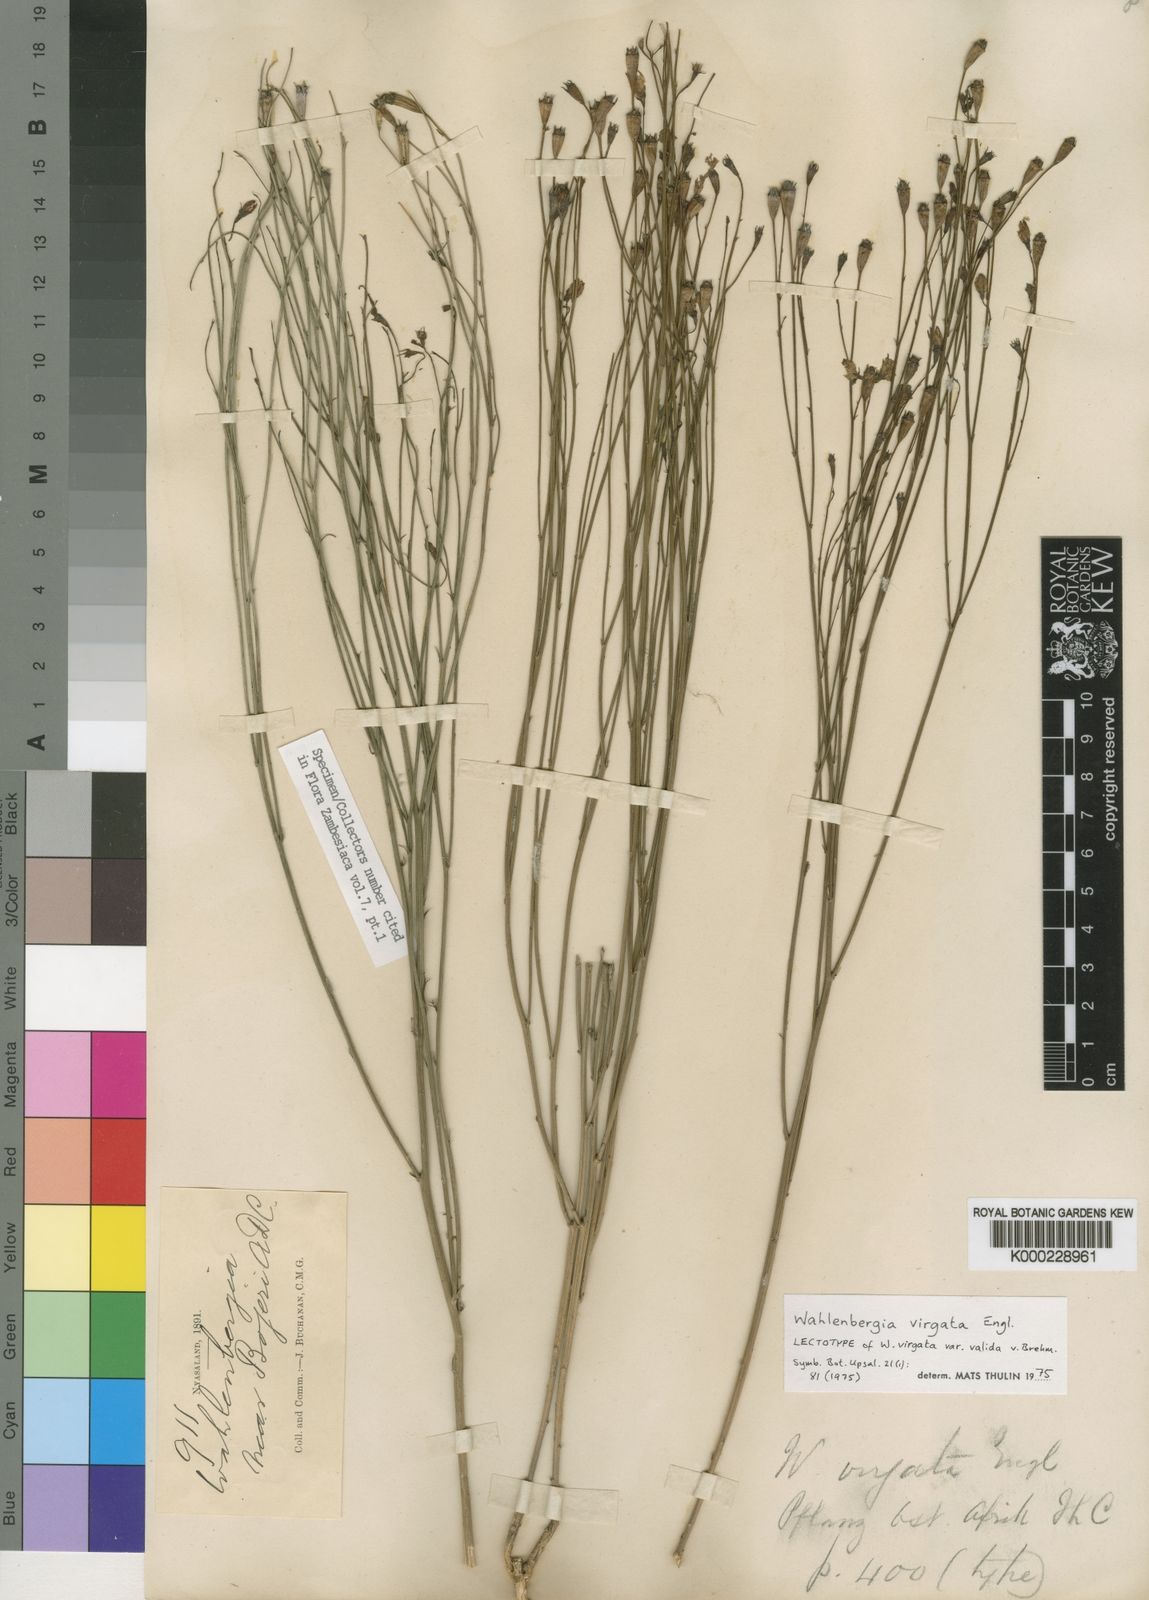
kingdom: Plantae
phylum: Tracheophyta
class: Magnoliopsida
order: Asterales
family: Campanulaceae
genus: Wahlenbergia
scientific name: Wahlenbergia virgata
